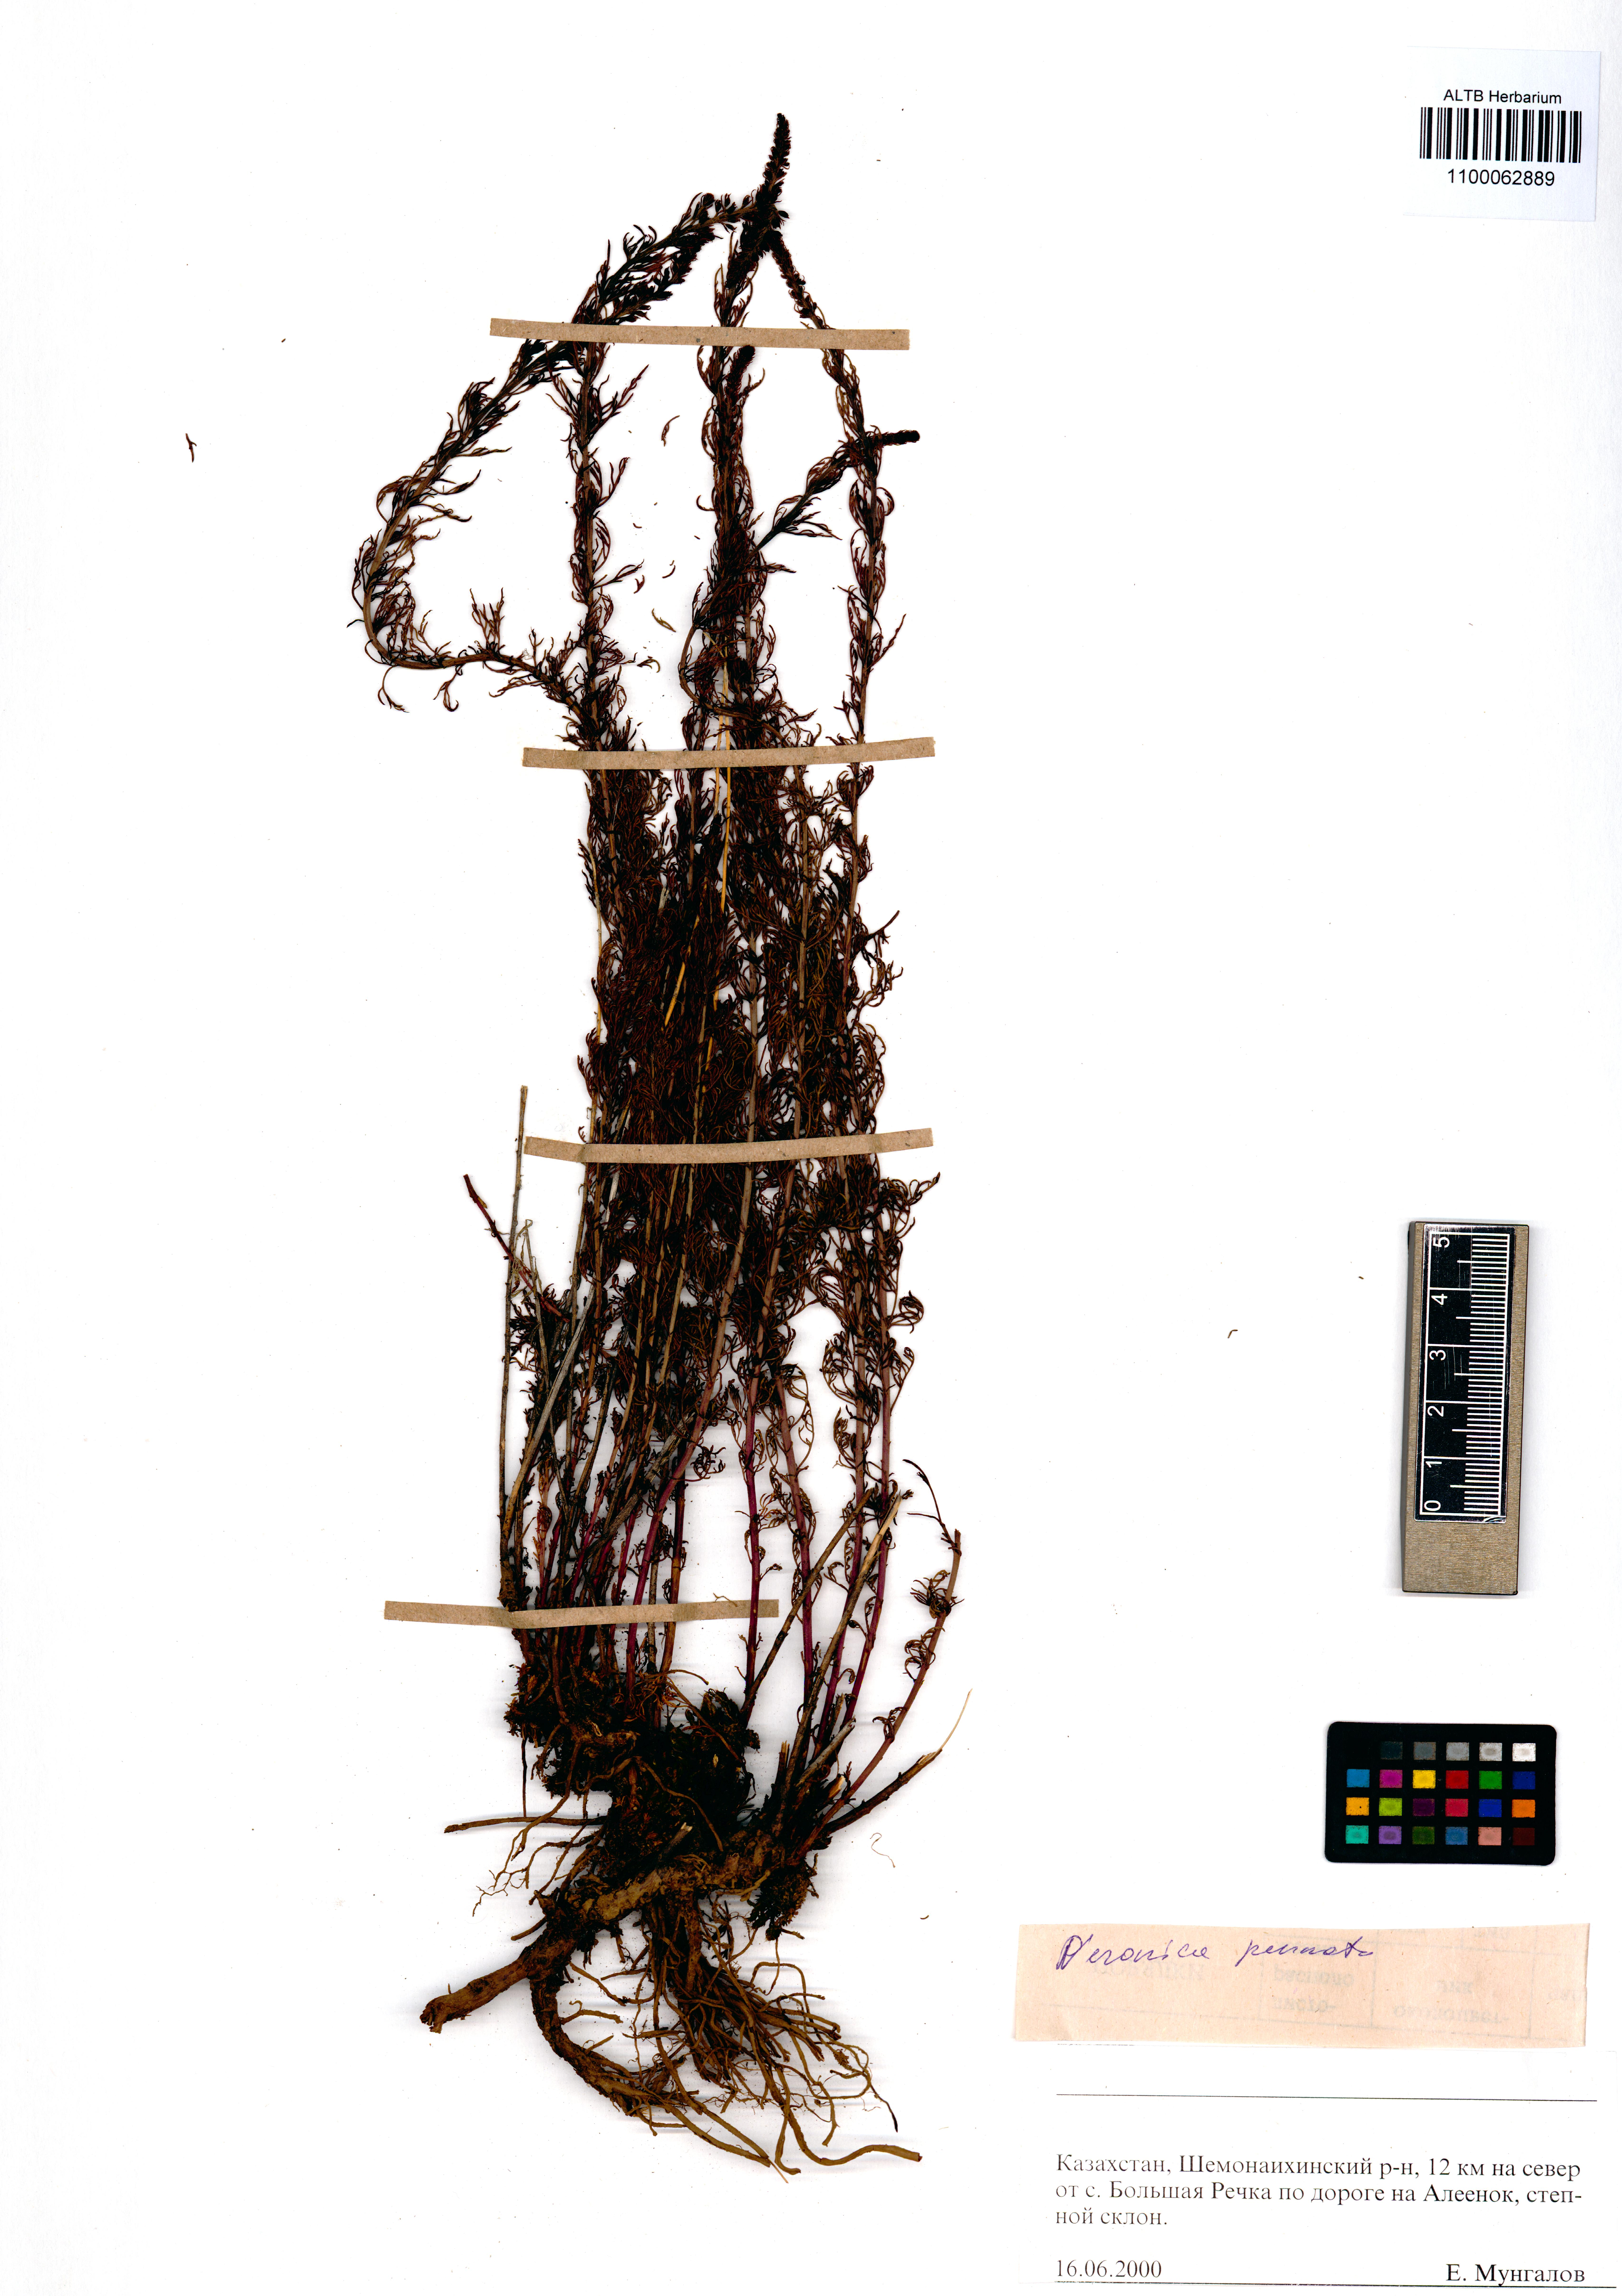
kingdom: Plantae
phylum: Tracheophyta
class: Magnoliopsida
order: Lamiales
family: Plantaginaceae
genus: Veronica
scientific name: Veronica pinnata
